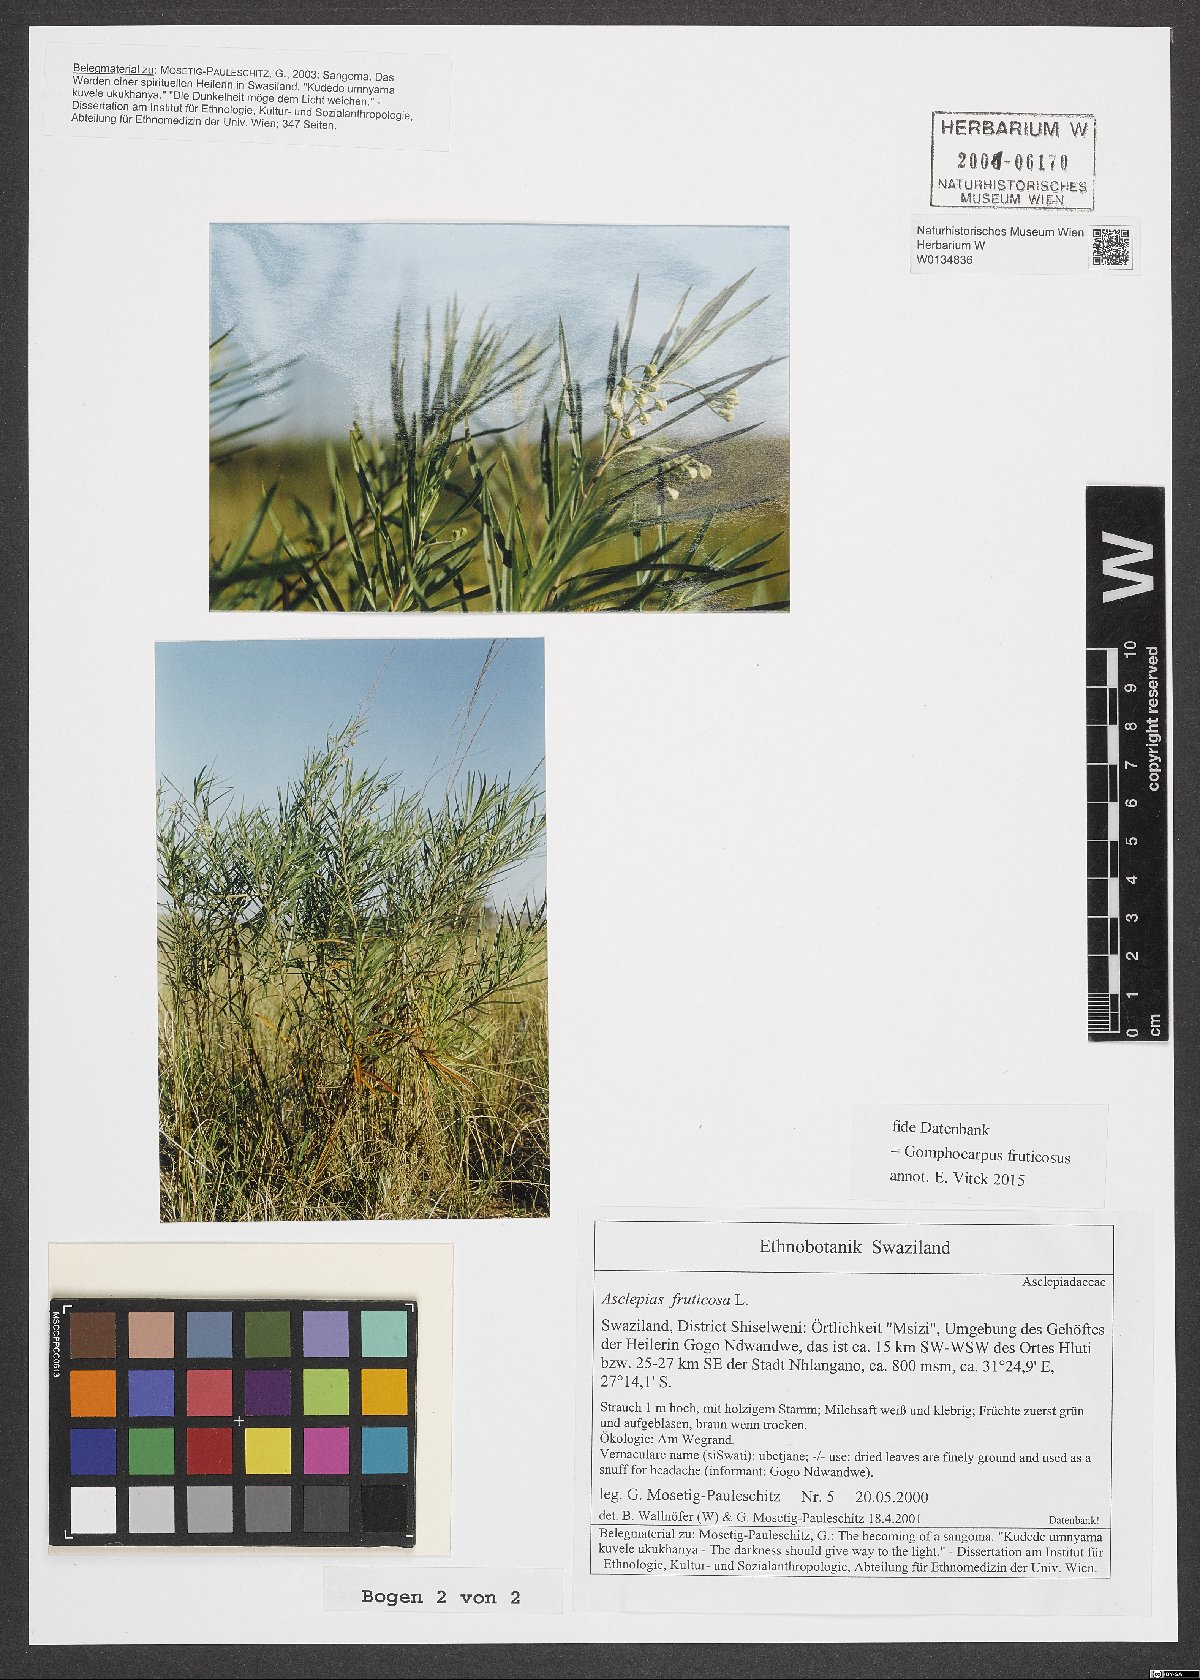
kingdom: Plantae
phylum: Tracheophyta
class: Magnoliopsida
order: Gentianales
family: Apocynaceae
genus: Gomphocarpus
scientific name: Gomphocarpus fruticosus
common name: Milkweed
